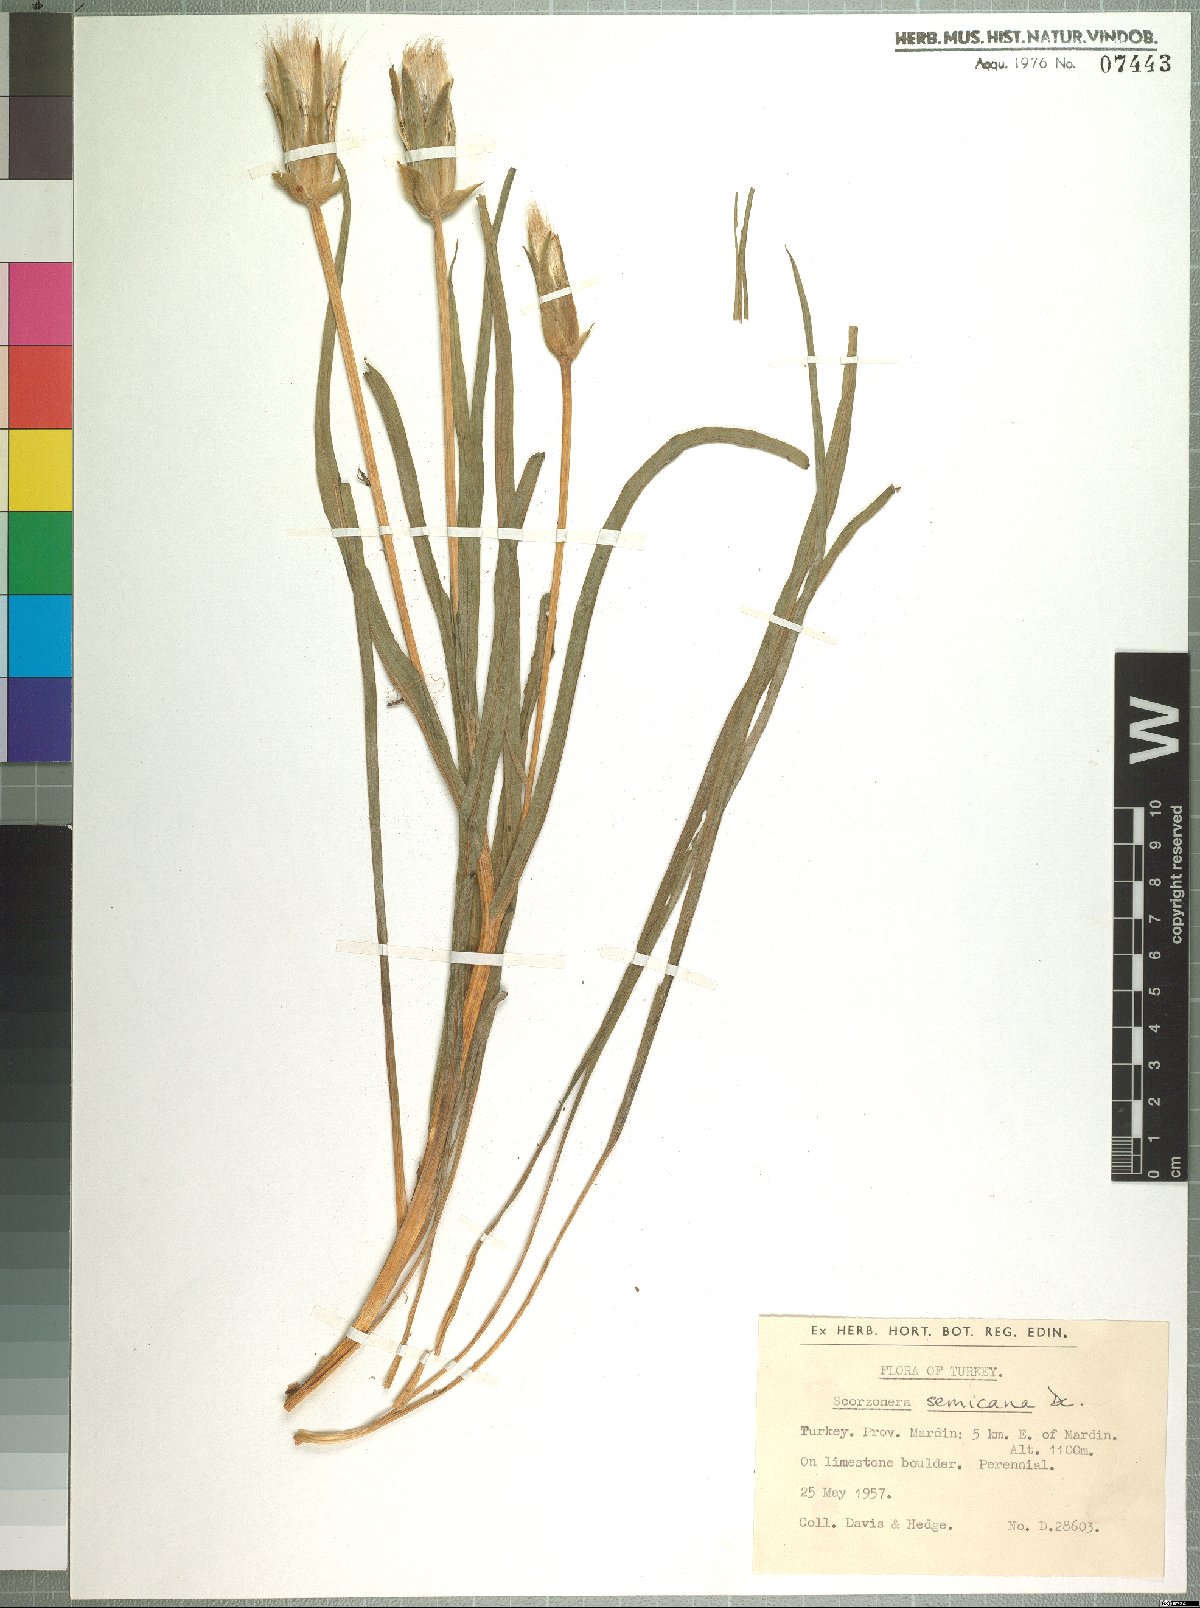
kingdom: Plantae
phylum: Tracheophyta
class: Magnoliopsida
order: Asterales
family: Asteraceae
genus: Pseudopodospermum
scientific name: Pseudopodospermum semicanum
